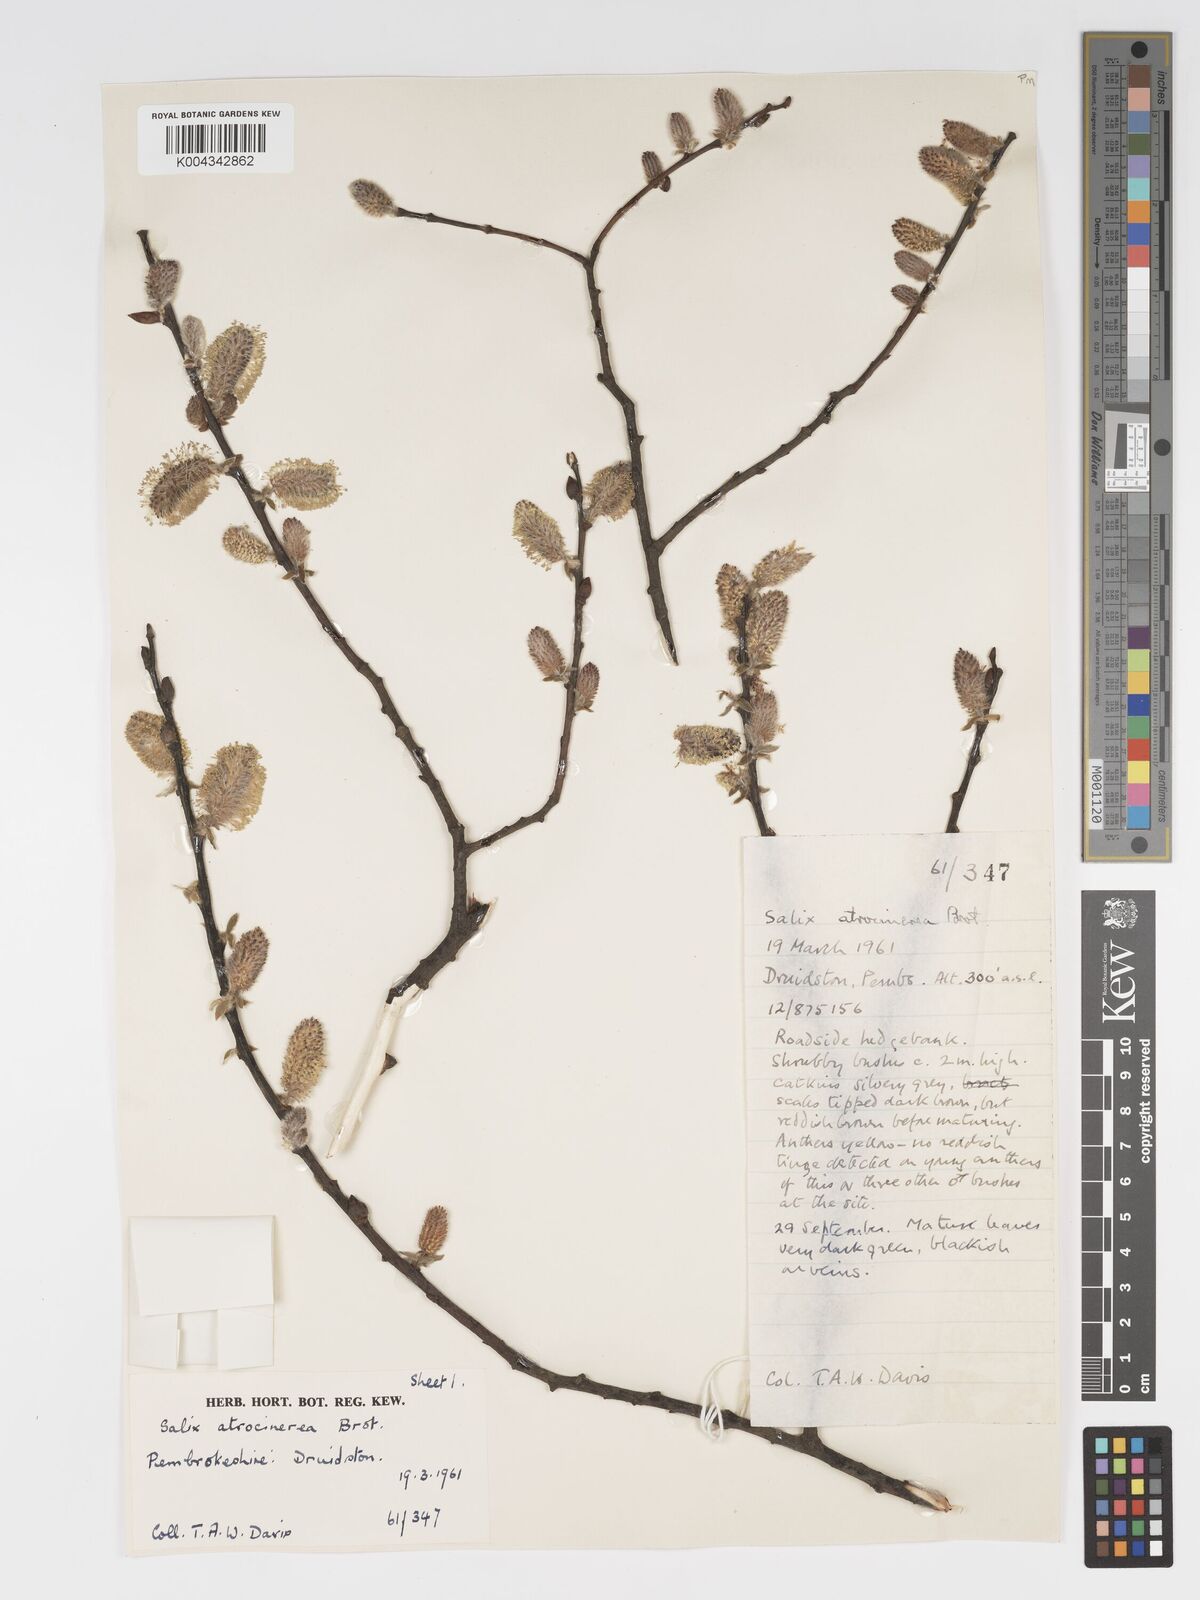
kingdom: Plantae
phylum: Tracheophyta
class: Magnoliopsida
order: Malpighiales
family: Salicaceae
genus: Salix
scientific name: Salix atrocinerea
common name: Rusty willow
